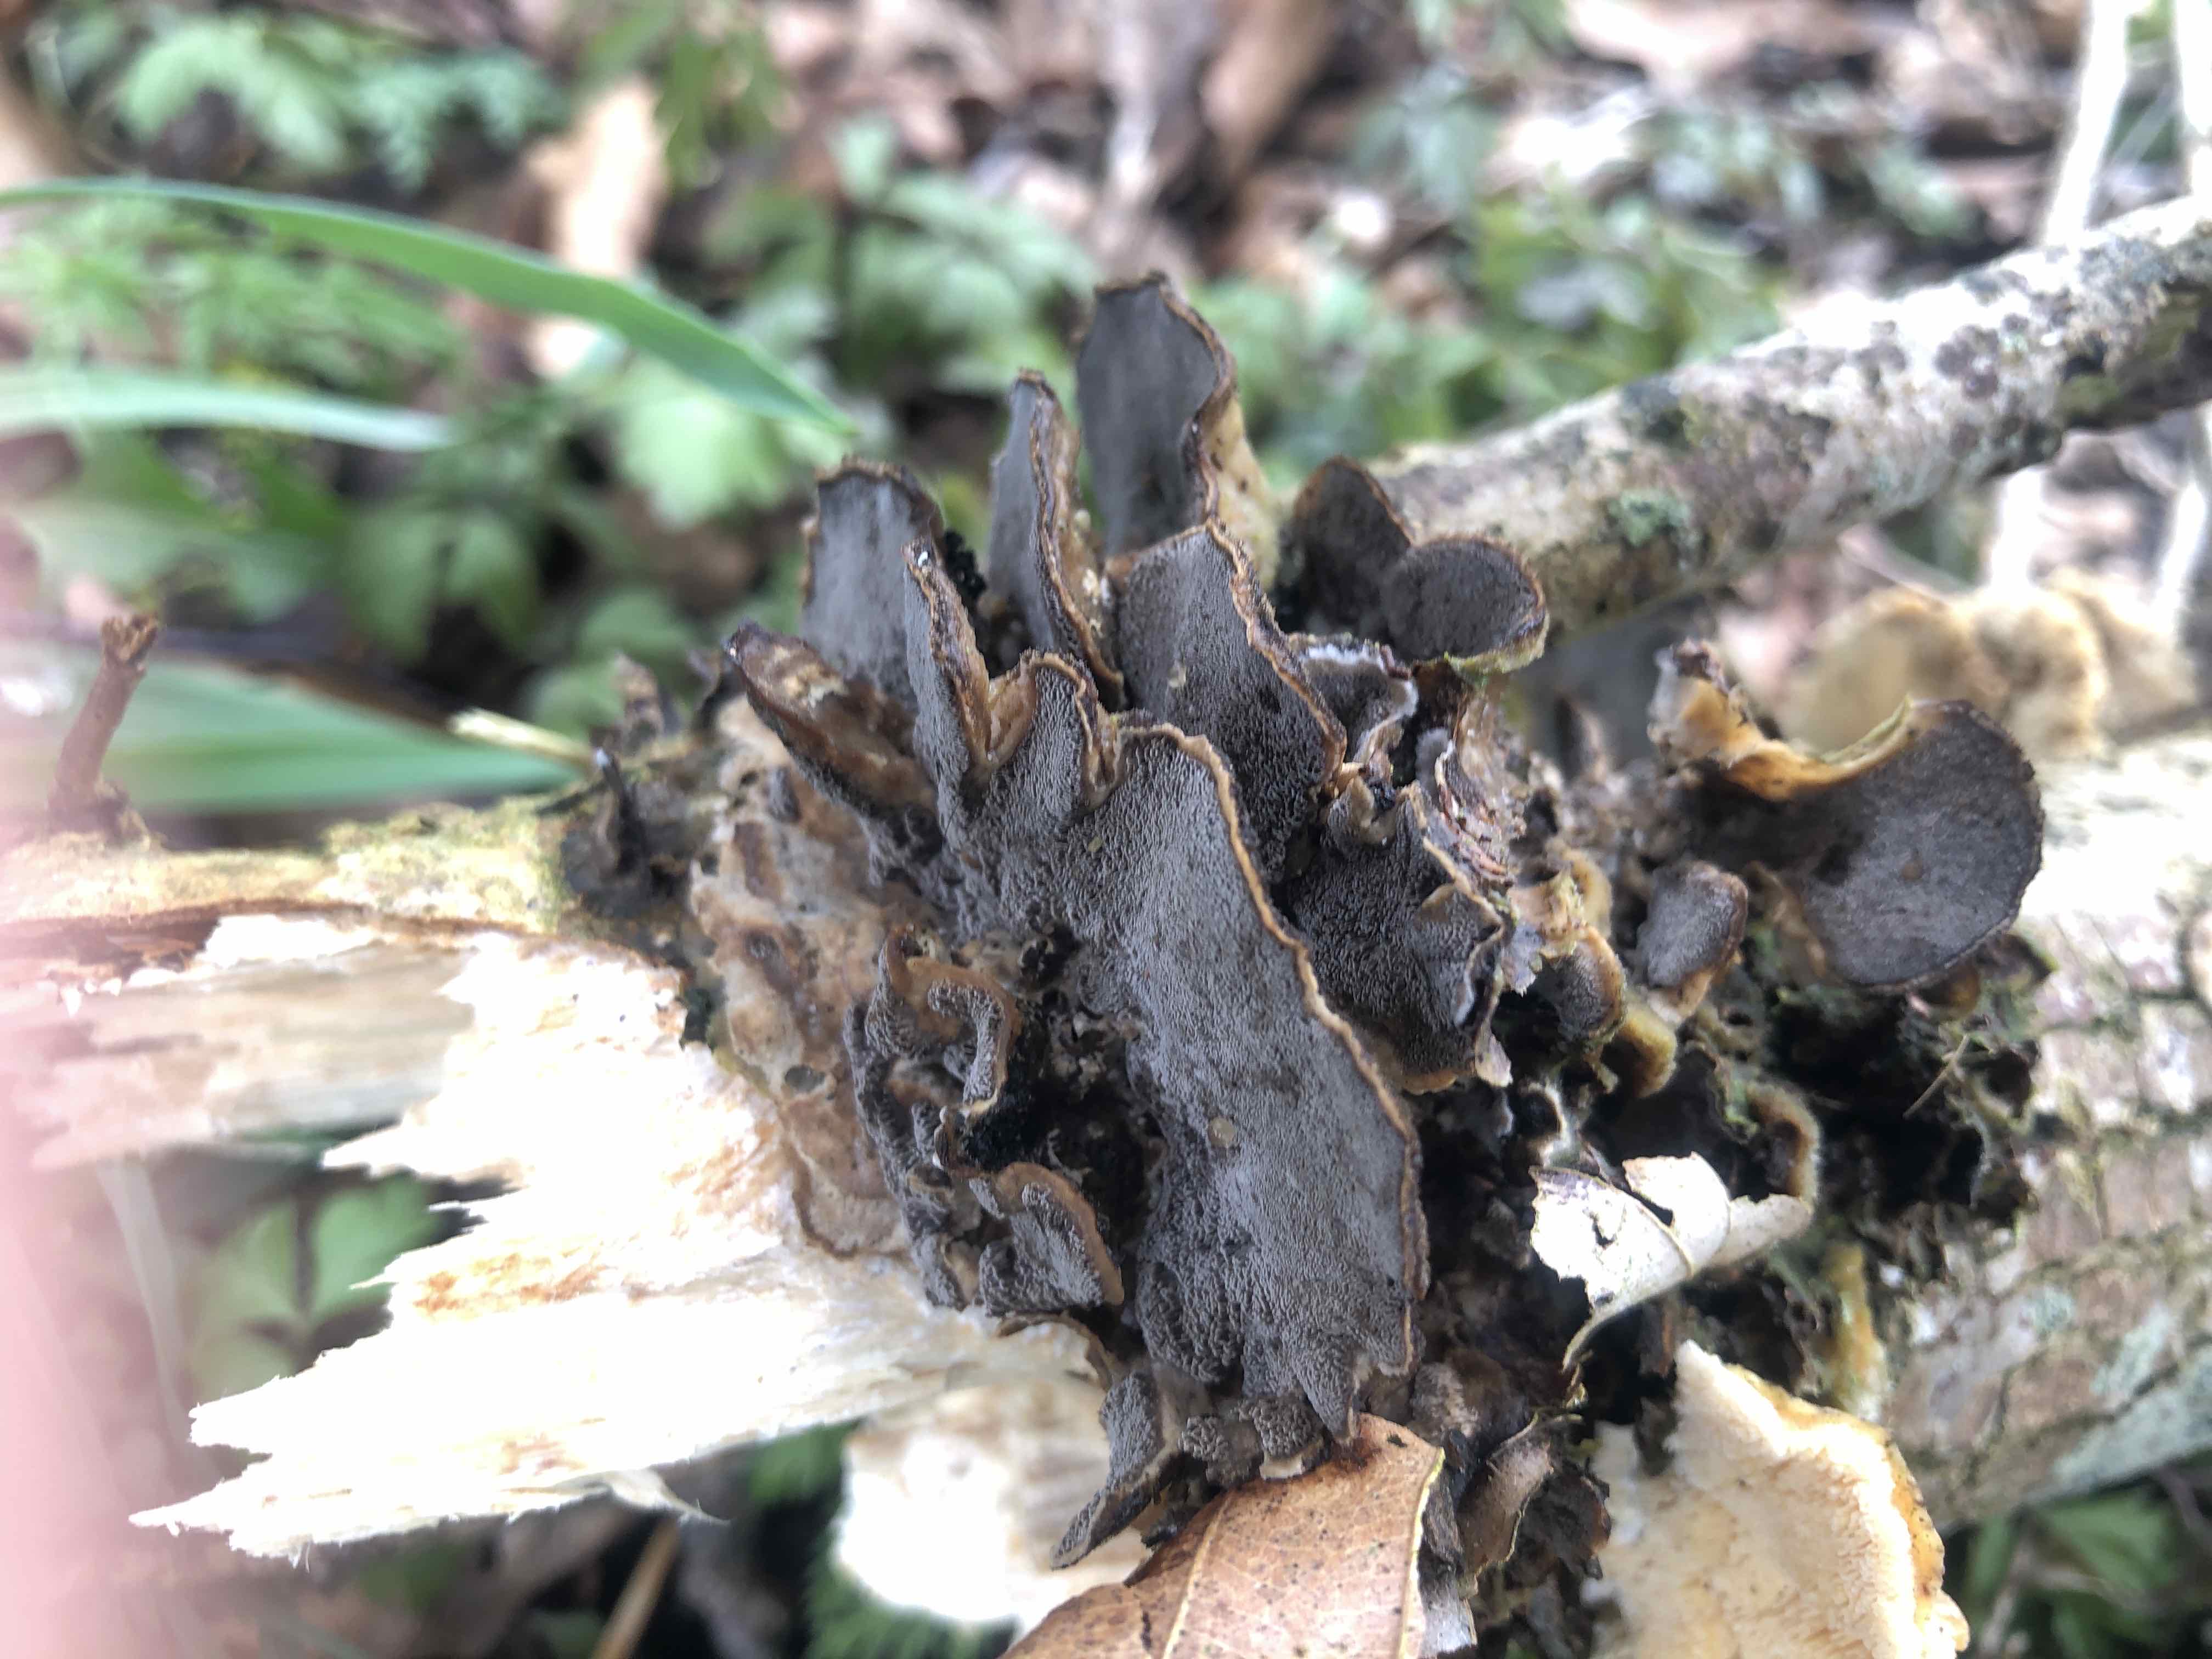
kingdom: Fungi
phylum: Basidiomycota
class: Agaricomycetes
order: Polyporales
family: Phanerochaetaceae
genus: Bjerkandera
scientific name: Bjerkandera adusta
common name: sveden sodporesvamp
